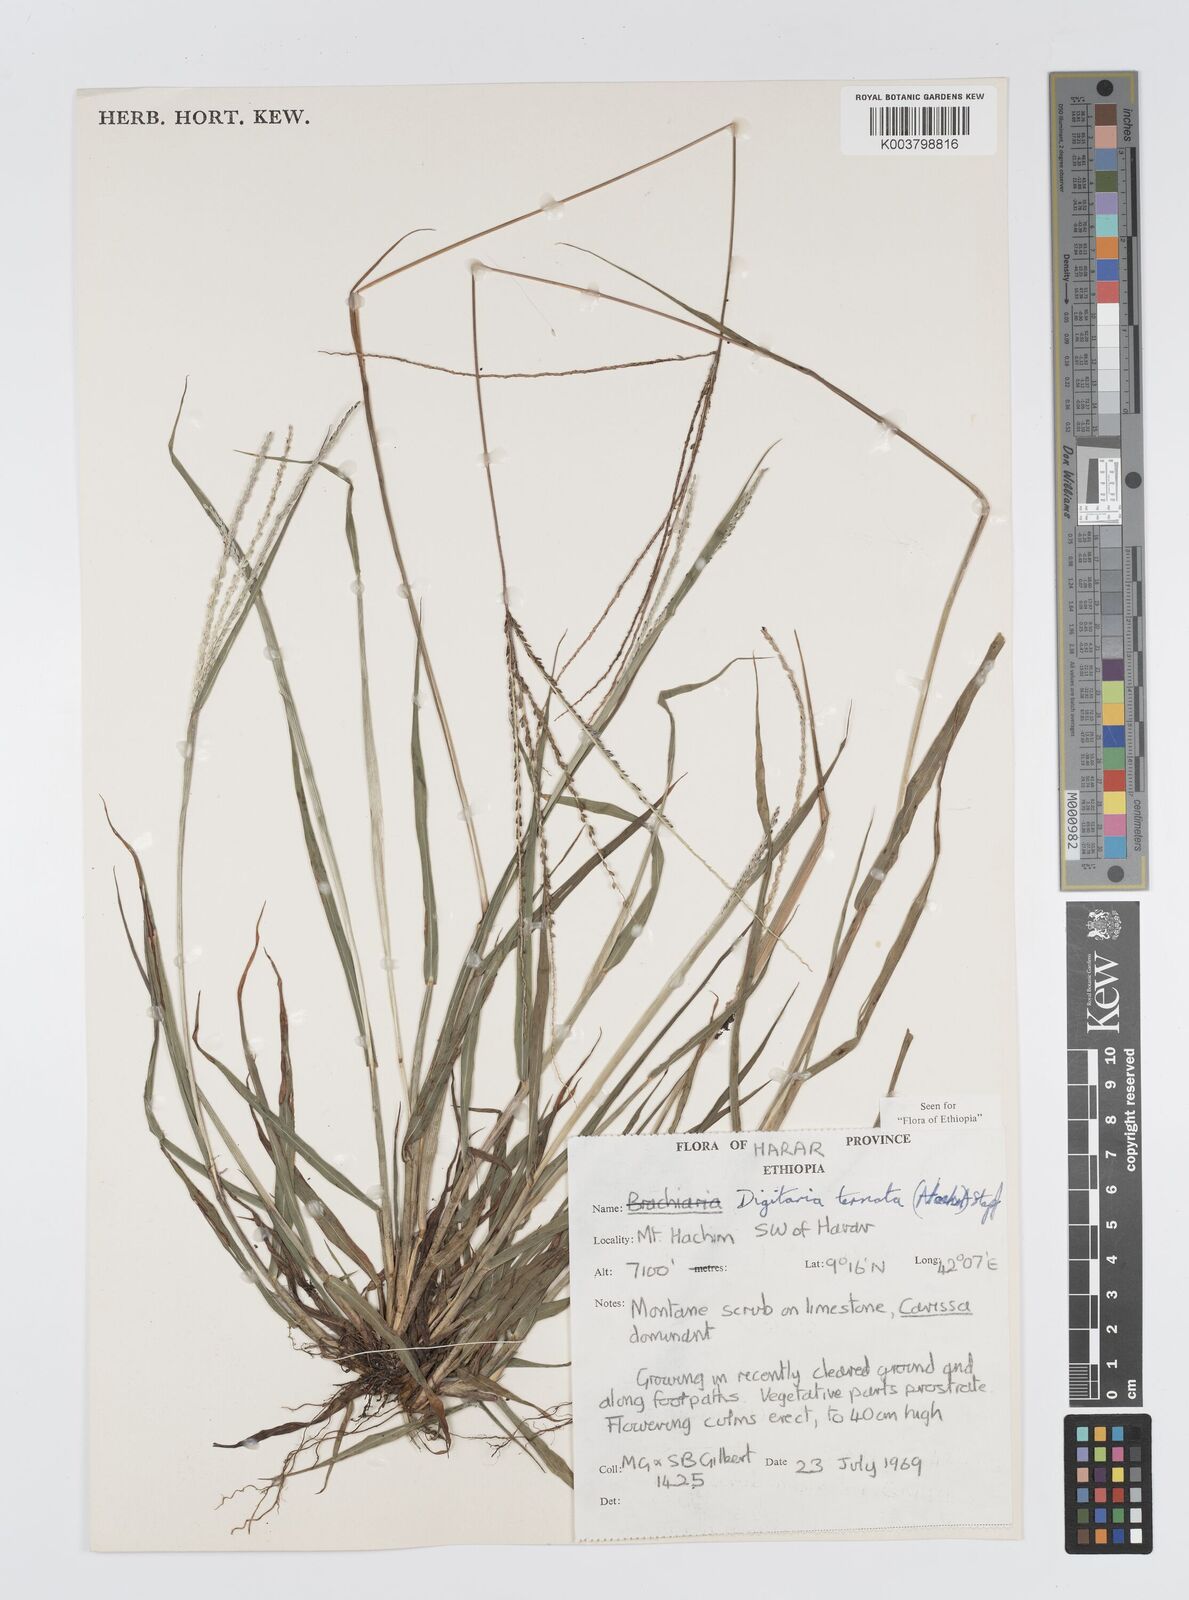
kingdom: Plantae
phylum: Tracheophyta
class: Liliopsida
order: Poales
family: Poaceae
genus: Digitaria
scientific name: Digitaria ternata
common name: Blackseed crabgrass
